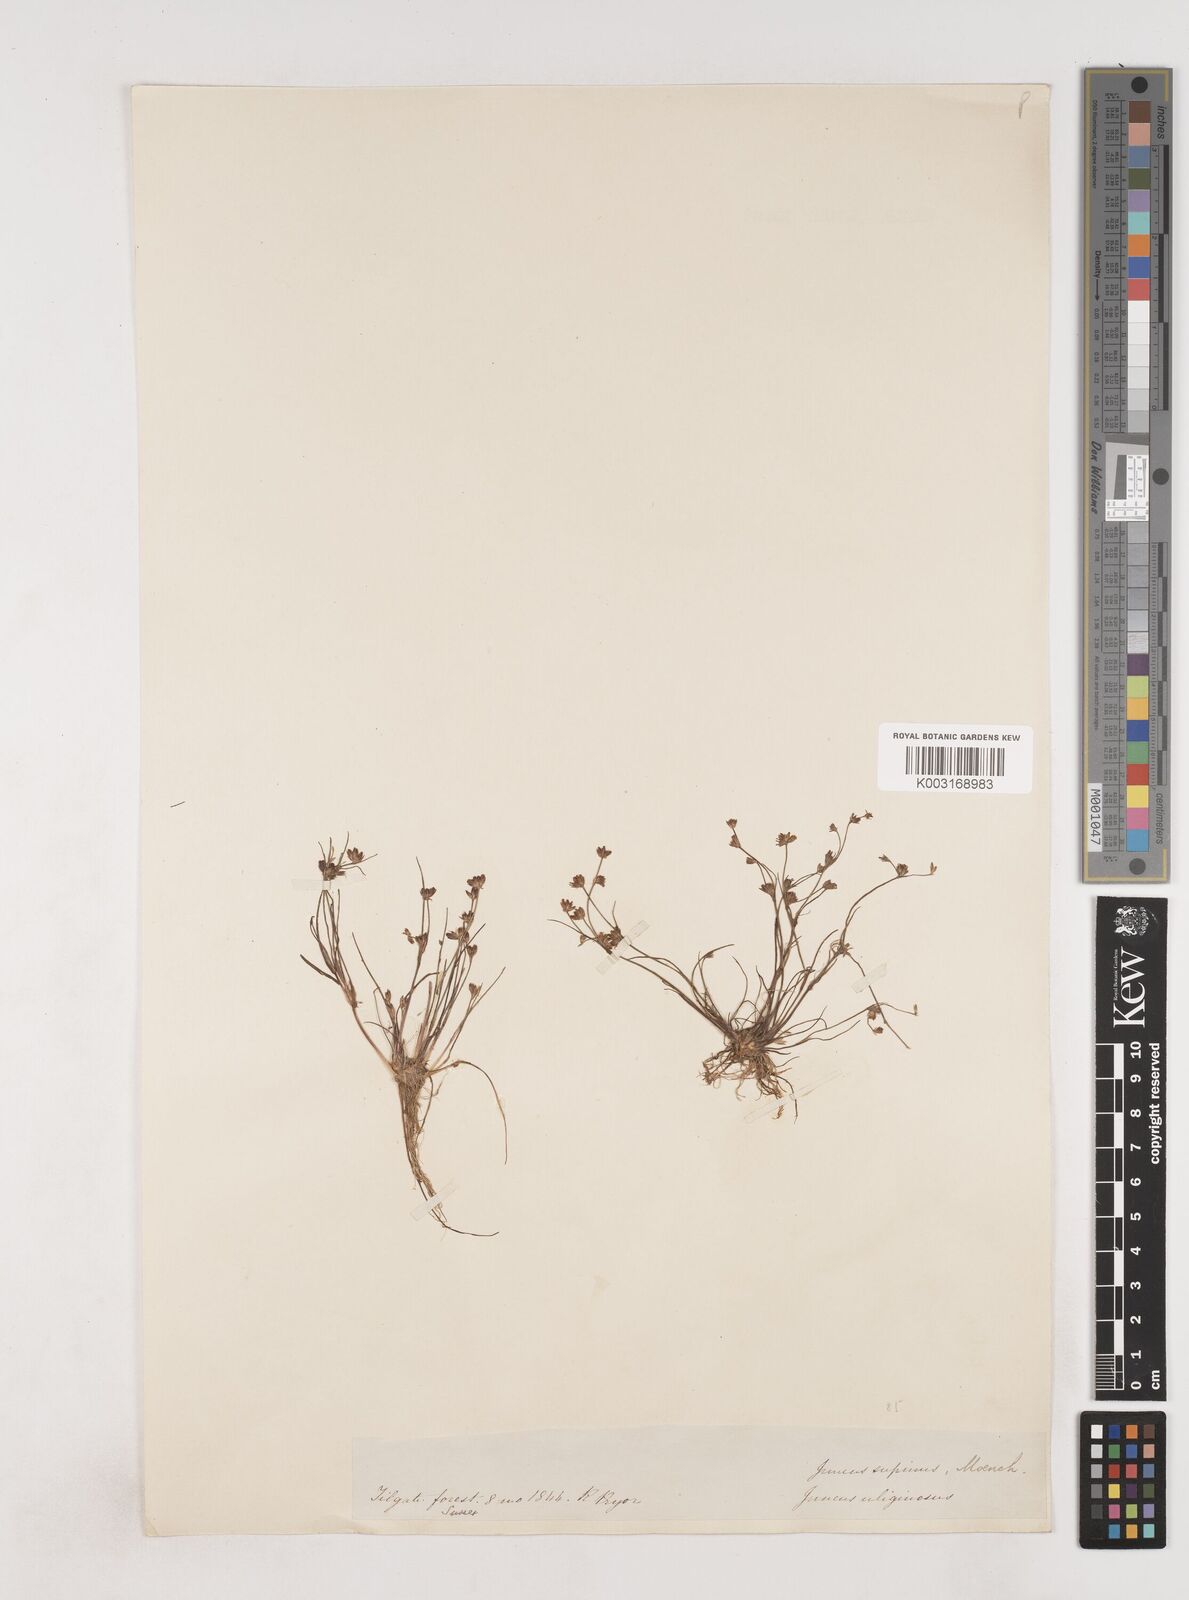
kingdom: Plantae
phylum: Tracheophyta
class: Liliopsida
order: Poales
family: Juncaceae
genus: Juncus
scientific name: Juncus bulbosus
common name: Bulbous rush
